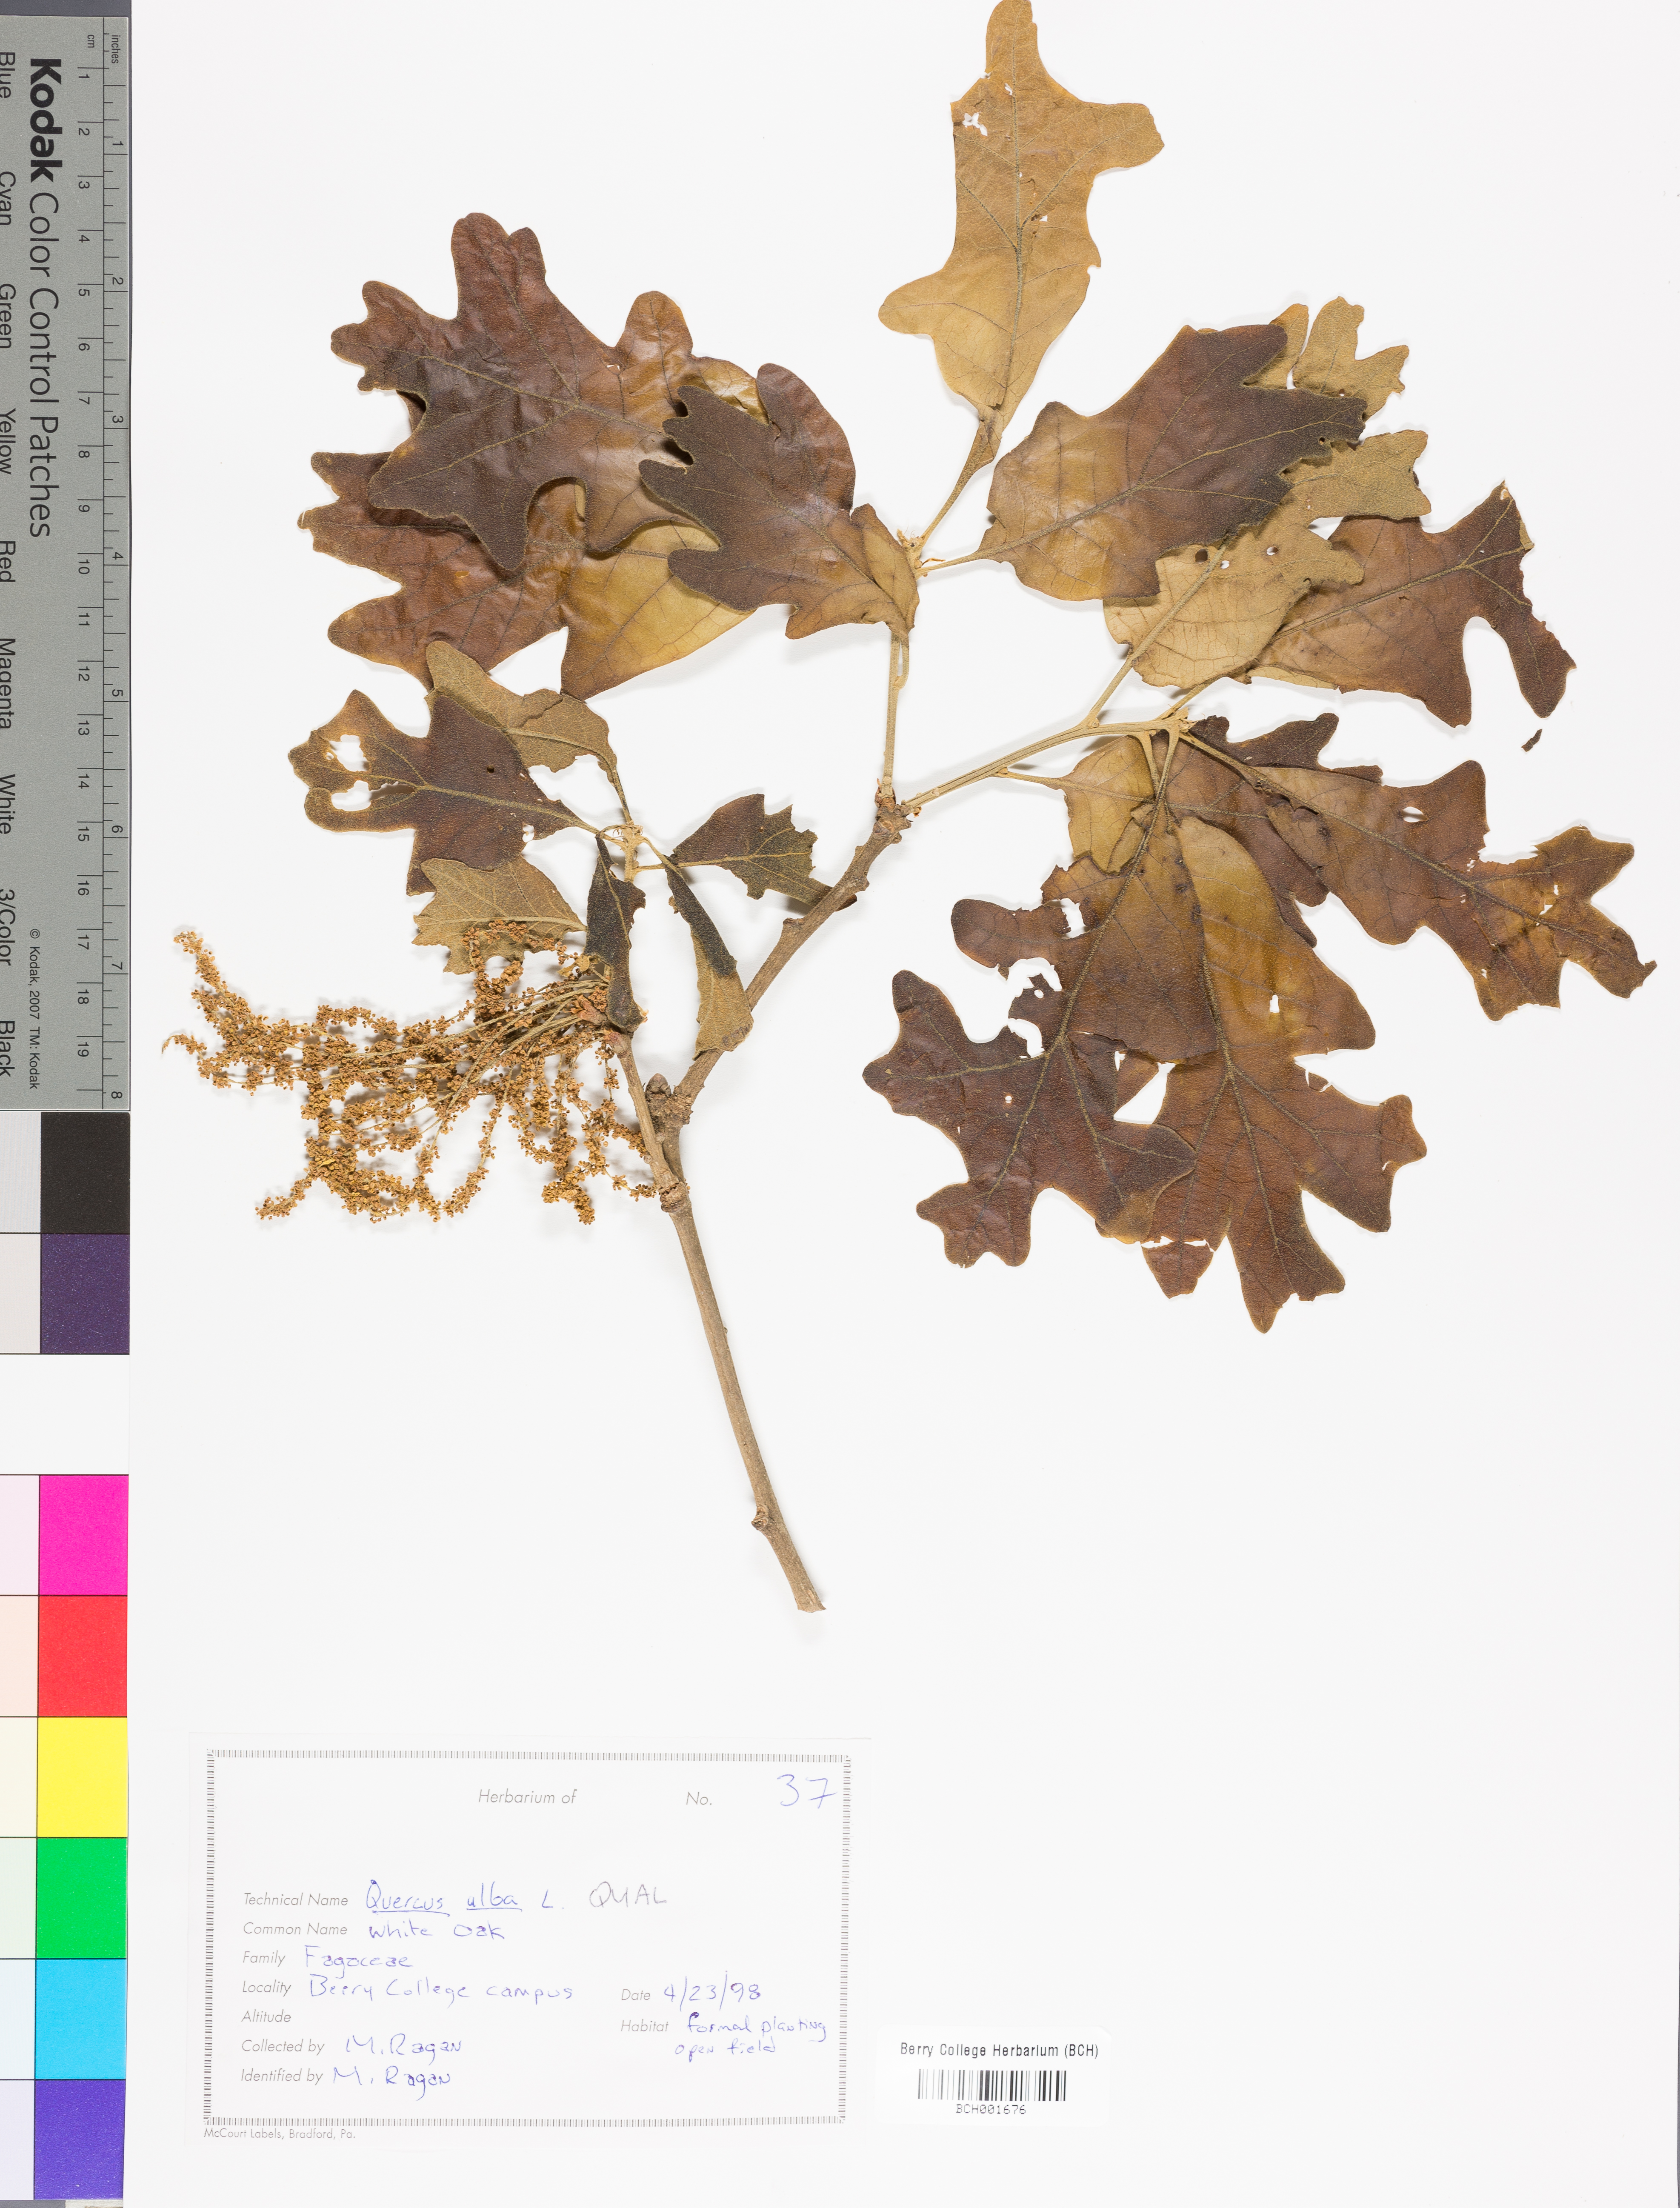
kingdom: Plantae
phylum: Tracheophyta
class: Magnoliopsida
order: Fagales
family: Fagaceae
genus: Quercus
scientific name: Quercus alba
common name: White oak
